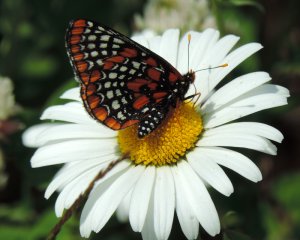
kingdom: Animalia
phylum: Arthropoda
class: Insecta
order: Lepidoptera
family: Nymphalidae
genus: Euphydryas
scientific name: Euphydryas phaeton
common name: Baltimore Checkerspot
